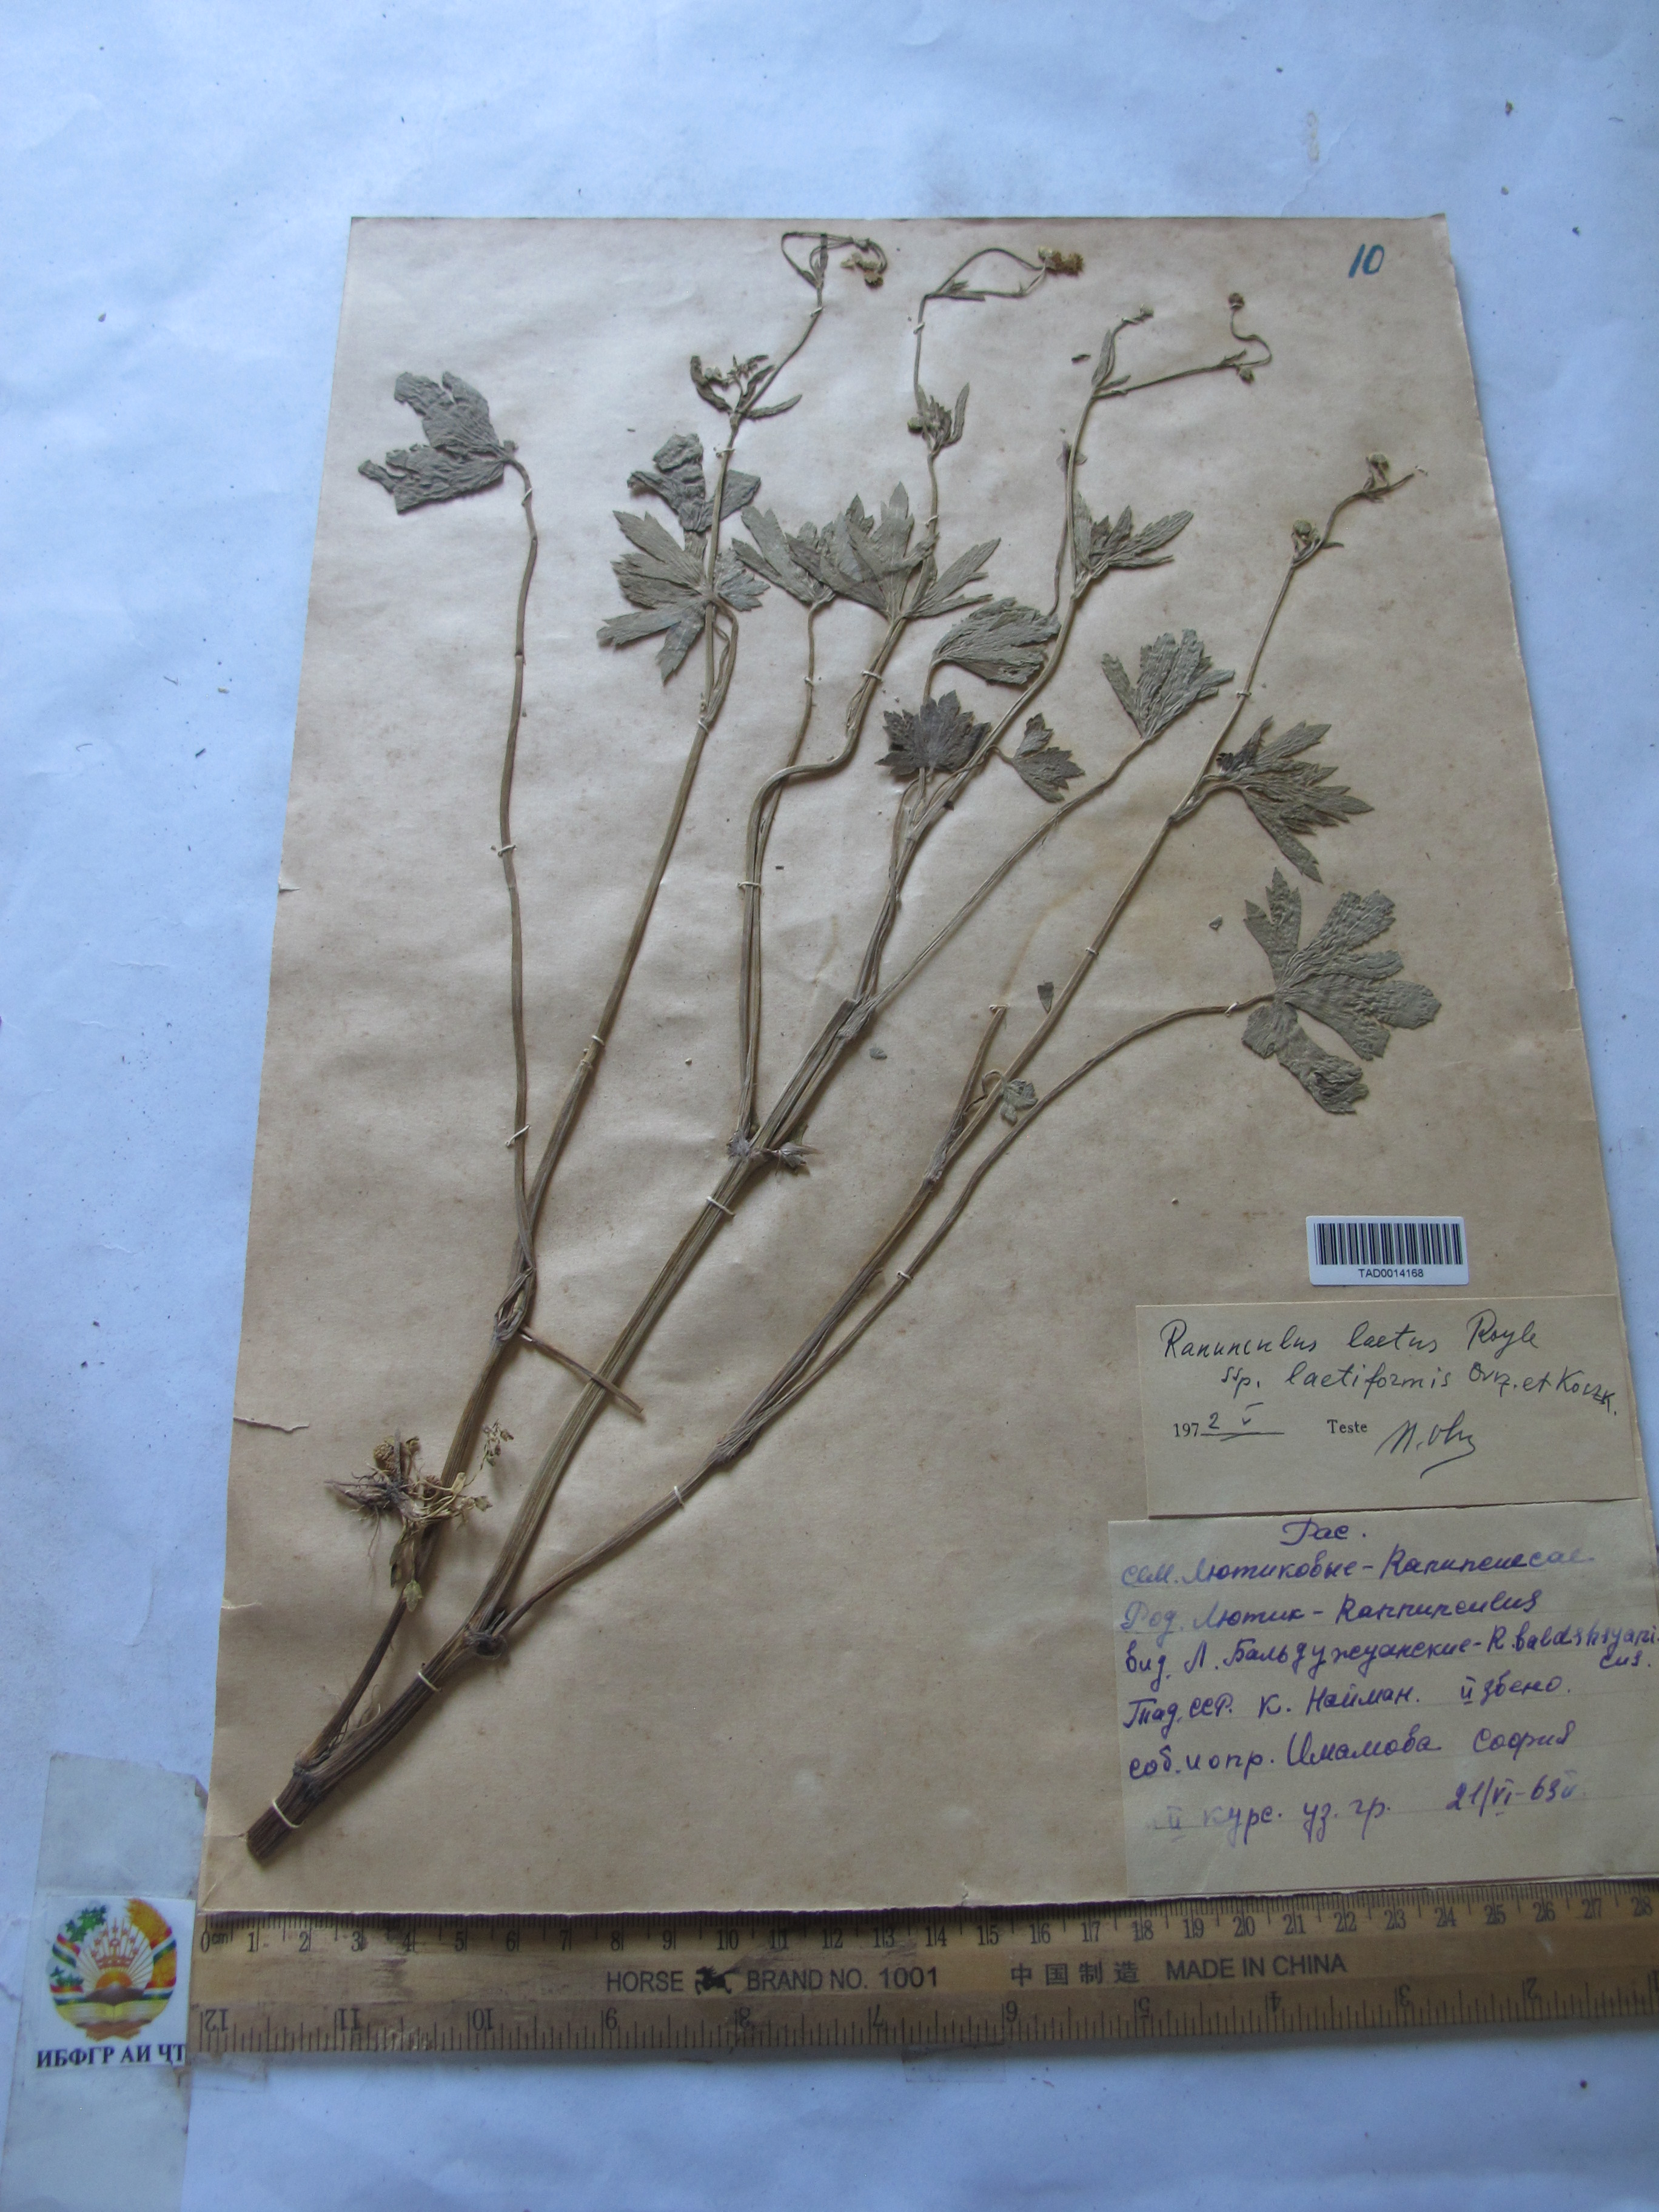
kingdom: Plantae
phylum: Tracheophyta
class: Magnoliopsida
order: Ranunculales
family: Ranunculaceae
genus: Ranunculus
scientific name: Ranunculus distans
